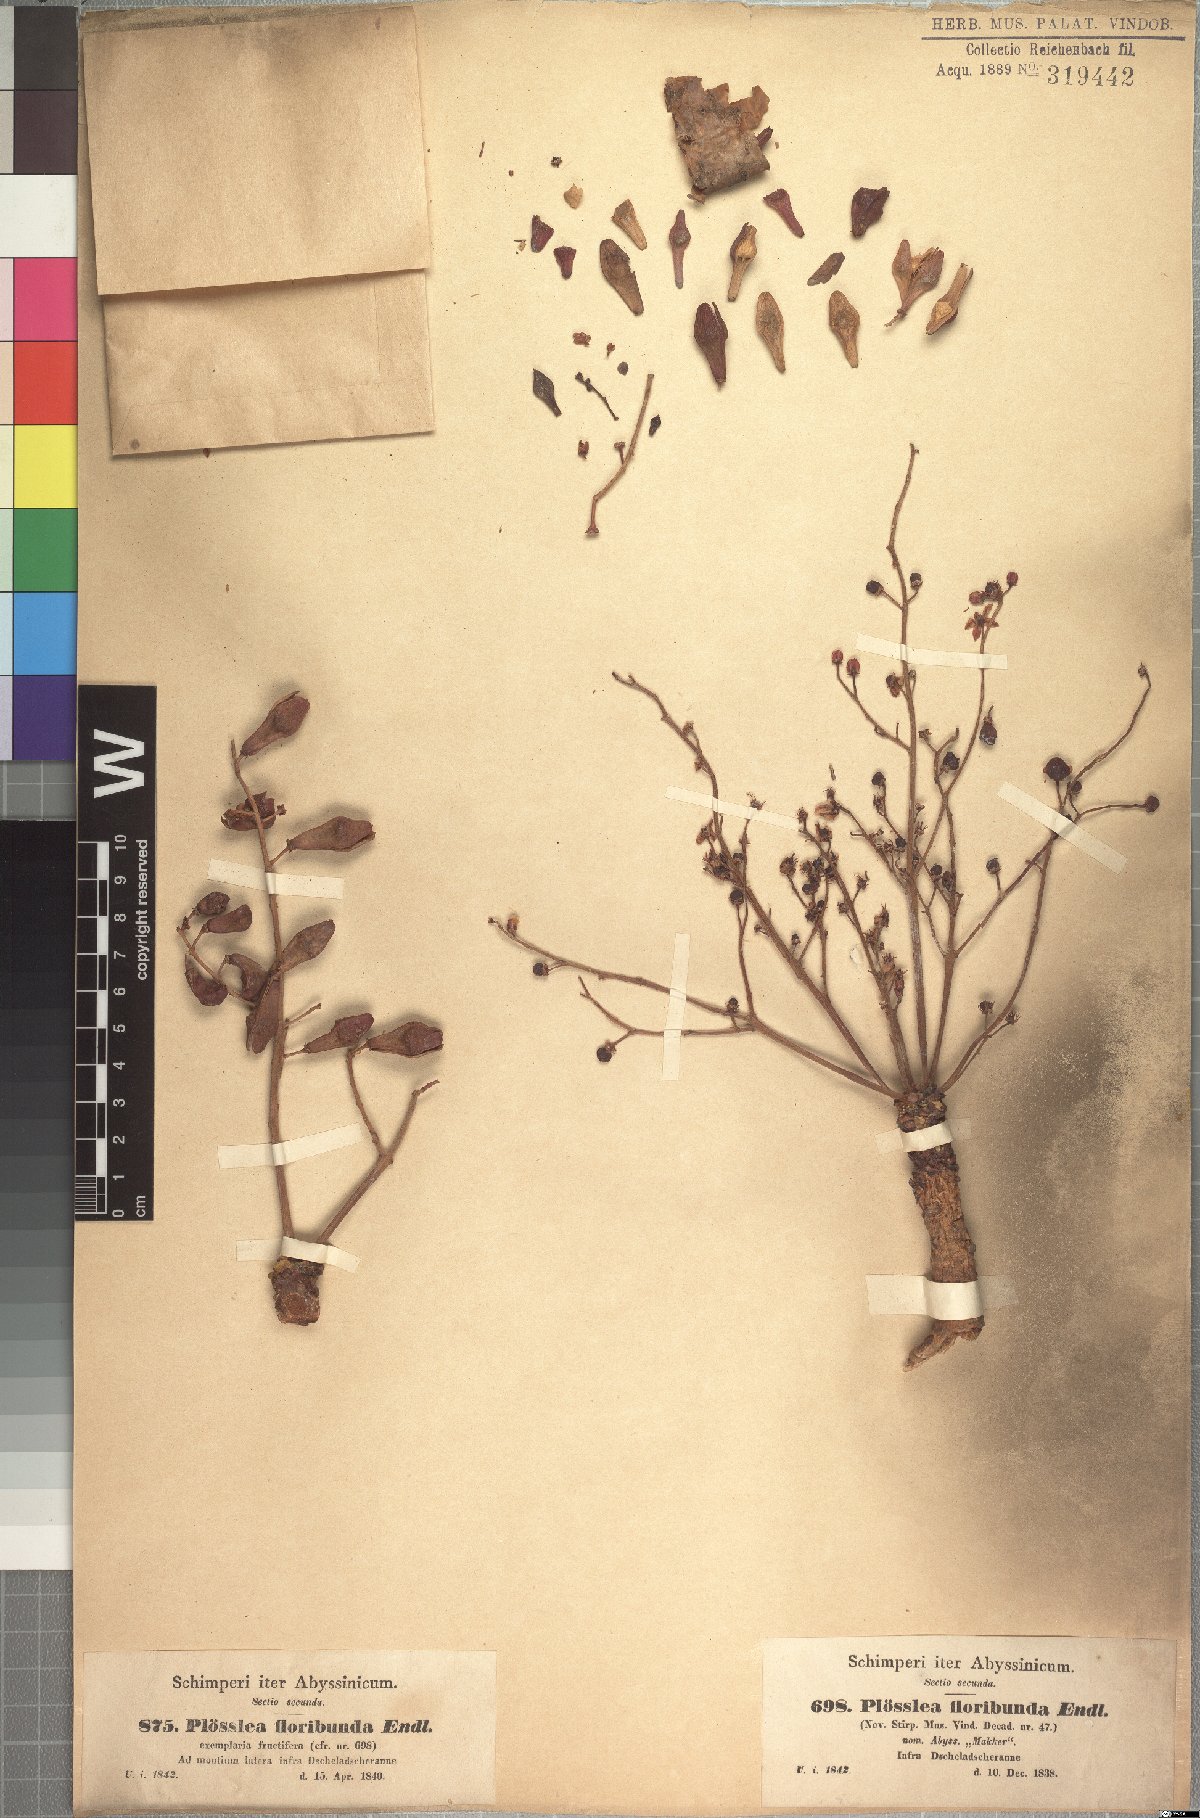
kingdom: Plantae
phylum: Tracheophyta
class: Magnoliopsida
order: Sapindales
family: Burseraceae
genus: Boswellia
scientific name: Boswellia papyrifera
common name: Sudanese frankincense
